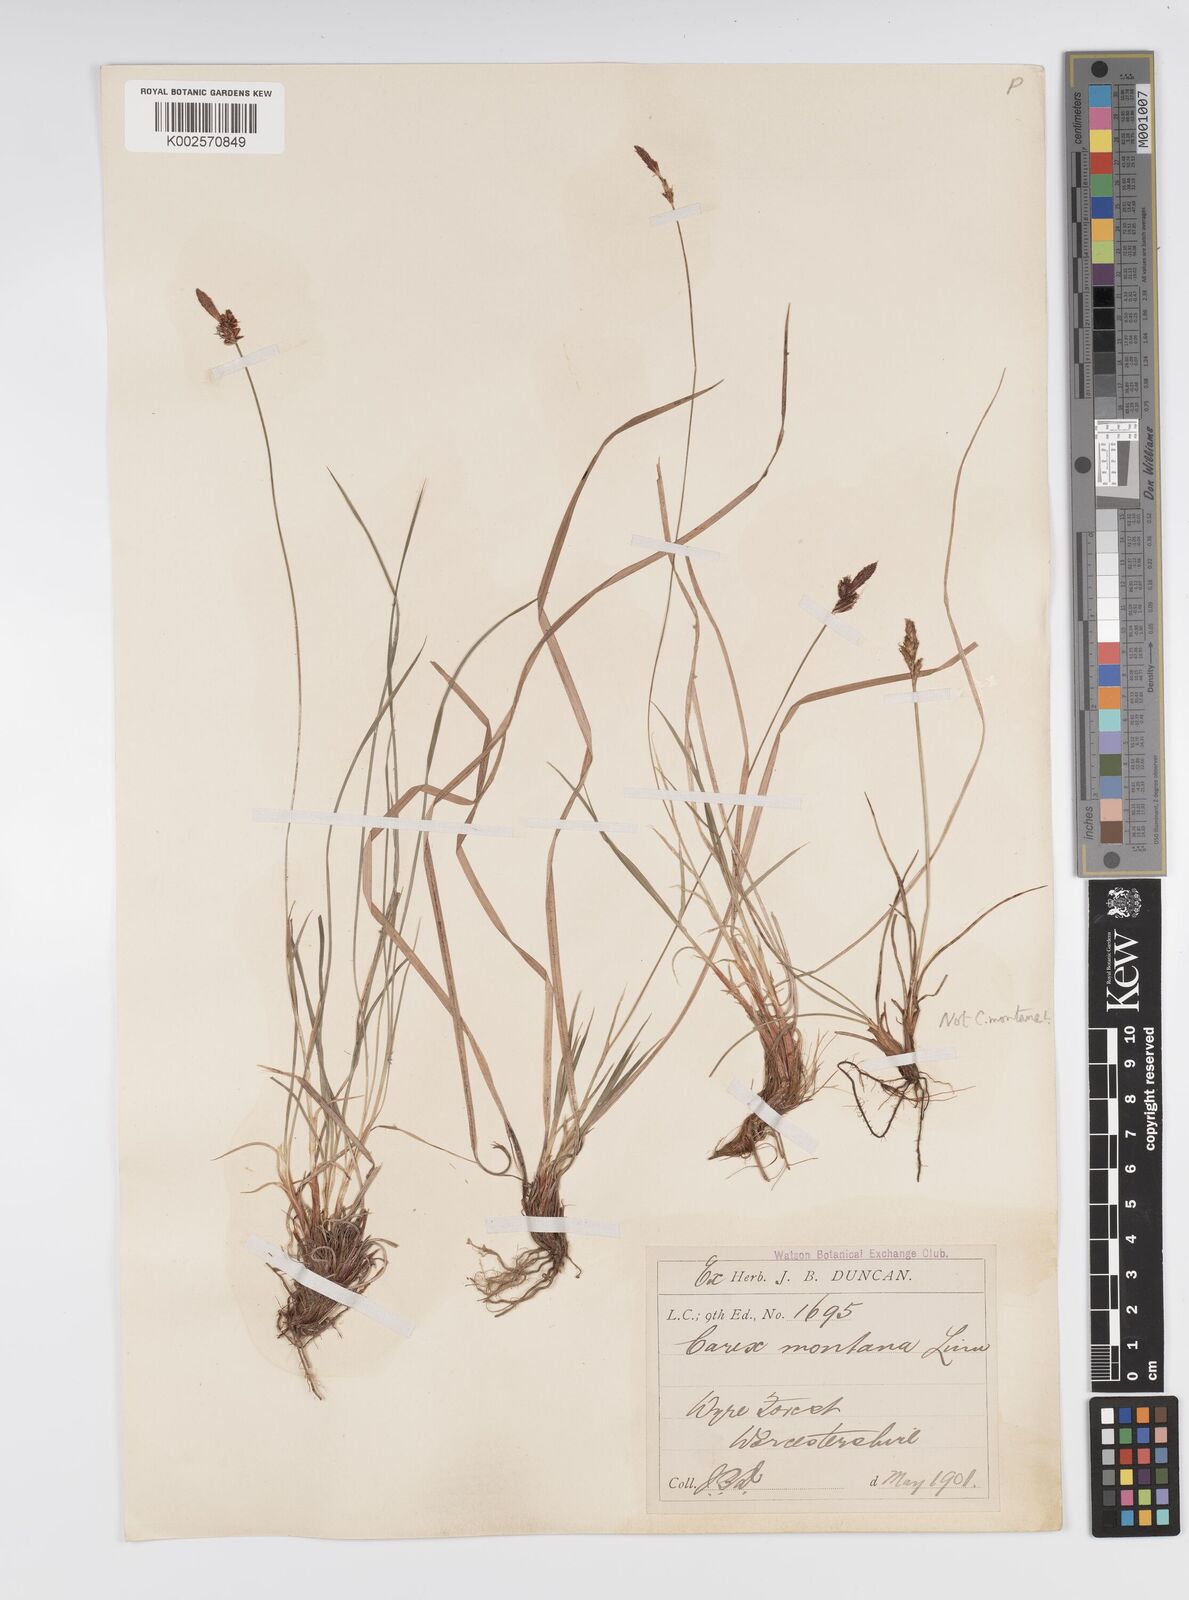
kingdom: Plantae
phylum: Tracheophyta
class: Liliopsida
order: Poales
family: Cyperaceae
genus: Carex
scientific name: Carex montana
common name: Soft-leaved sedge
